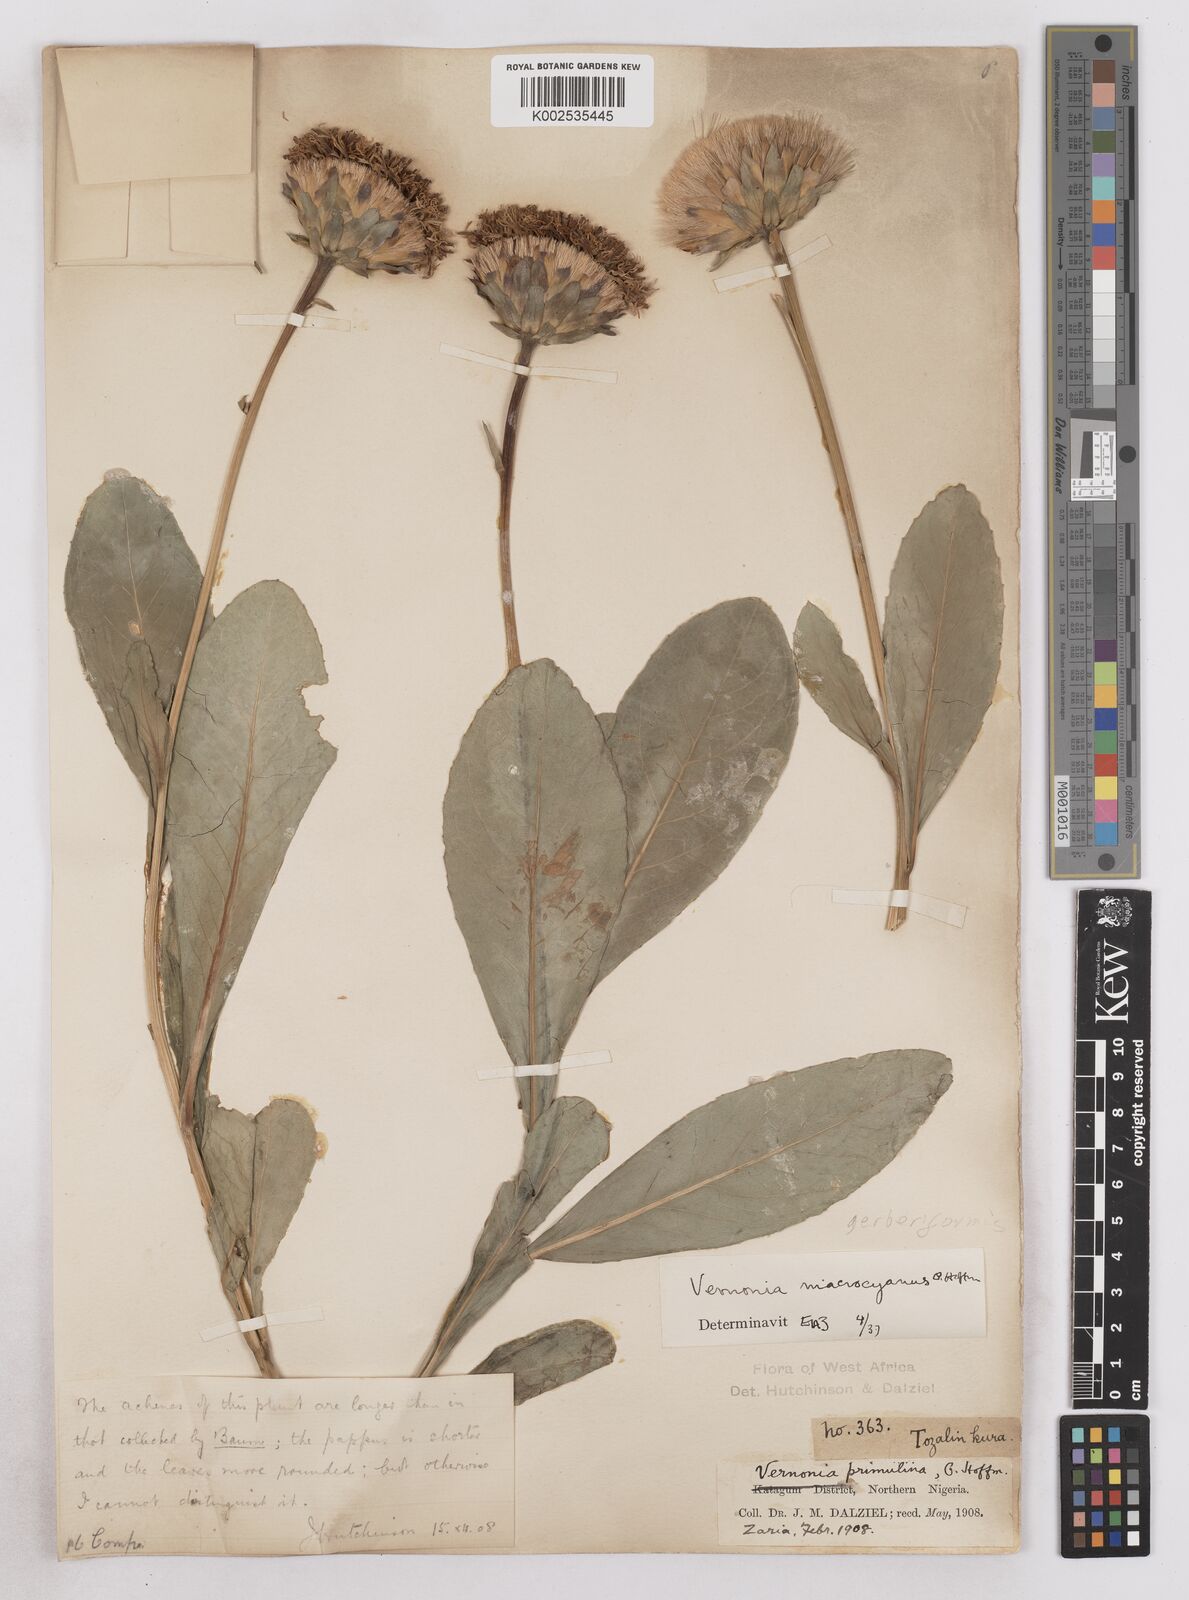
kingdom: Plantae
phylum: Tracheophyta
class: Magnoliopsida
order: Asterales
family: Asteraceae
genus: Linzia
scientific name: Linzia gerberiformis
